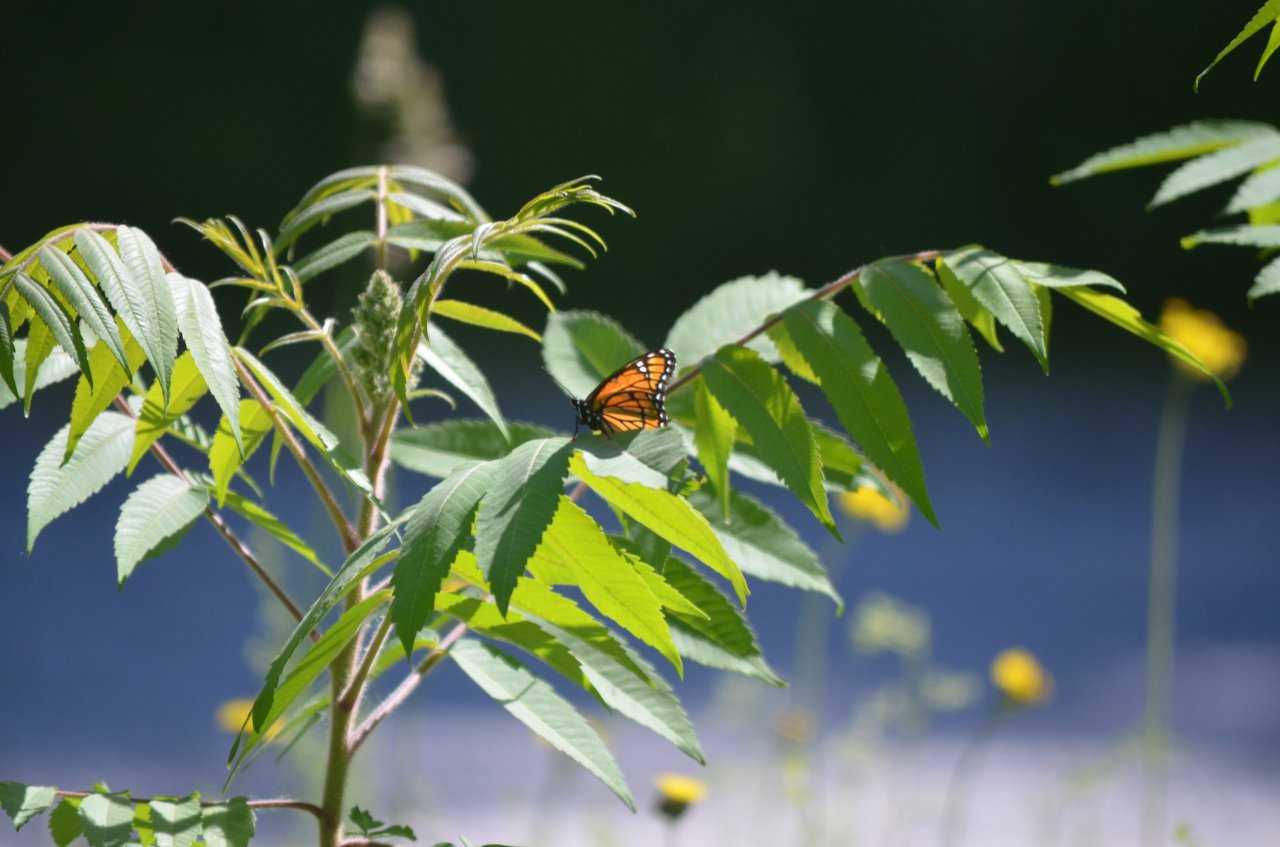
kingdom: Animalia
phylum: Arthropoda
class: Insecta
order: Lepidoptera
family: Nymphalidae
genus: Limenitis
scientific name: Limenitis archippus
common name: Viceroy
